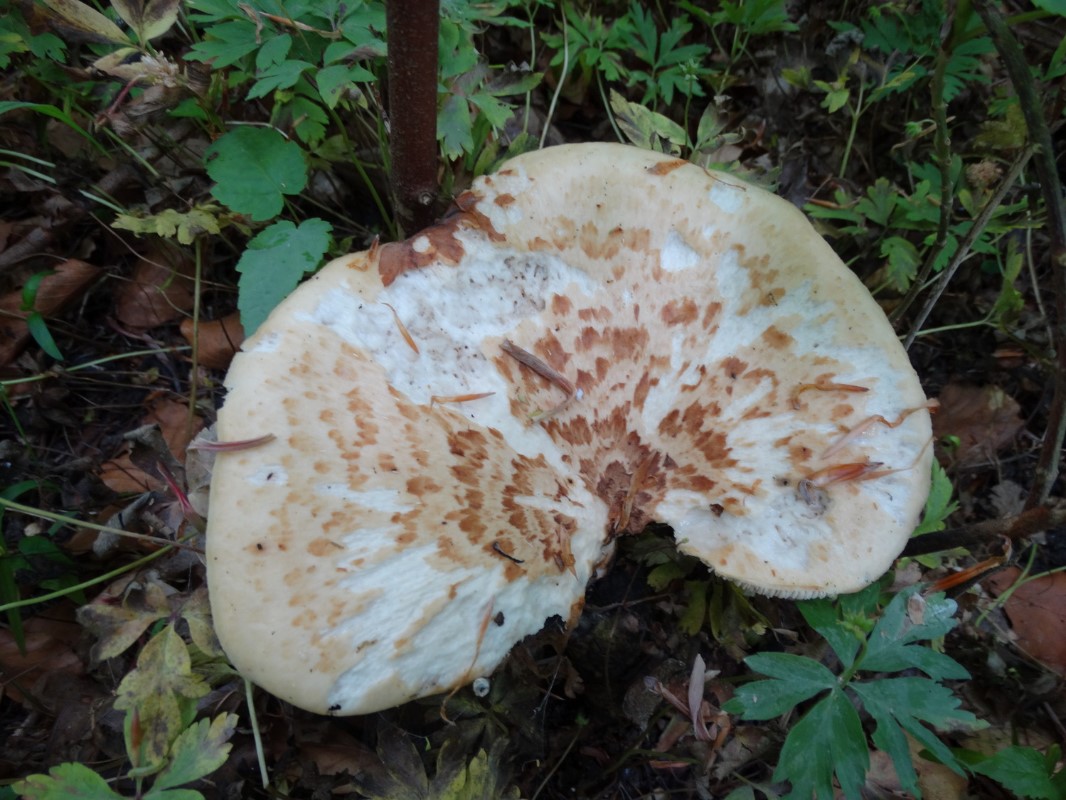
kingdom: Fungi
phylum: Basidiomycota
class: Agaricomycetes
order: Polyporales
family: Polyporaceae
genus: Cerioporus
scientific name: Cerioporus squamosus
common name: skællet stilkporesvamp
